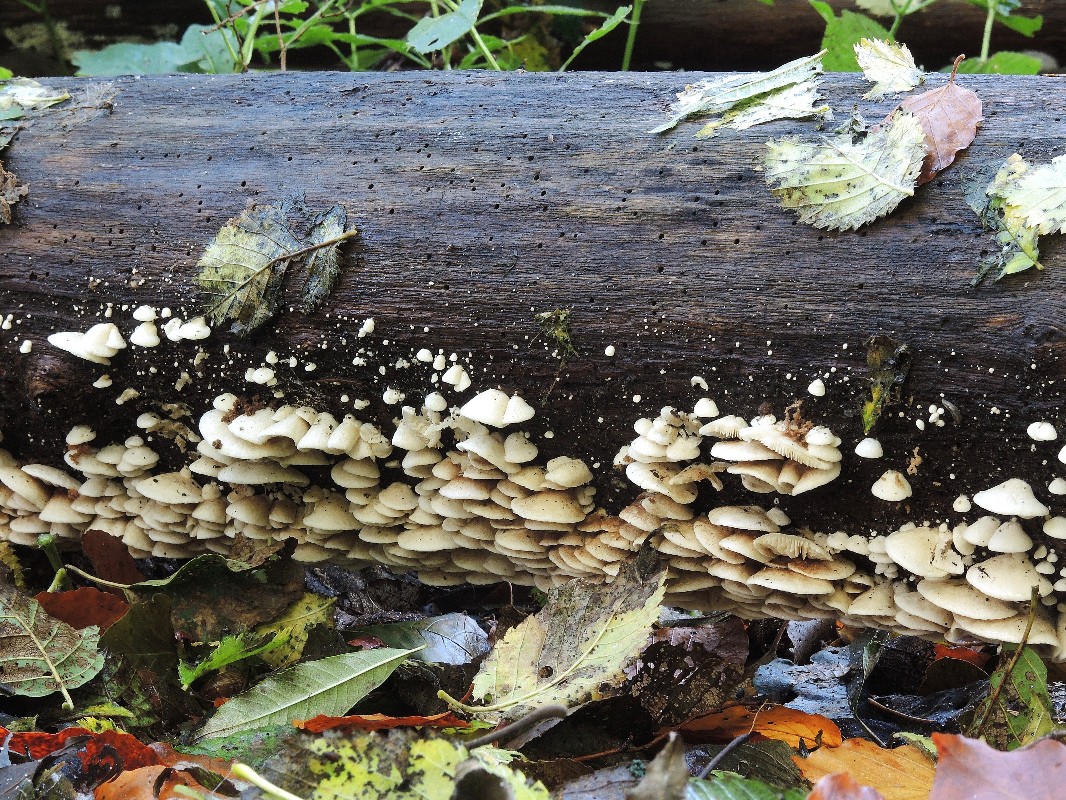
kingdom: Fungi
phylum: Basidiomycota
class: Agaricomycetes
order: Agaricales
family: Crepidotaceae
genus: Crepidotus
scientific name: Crepidotus caspari
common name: Lundells muslingesvamp
